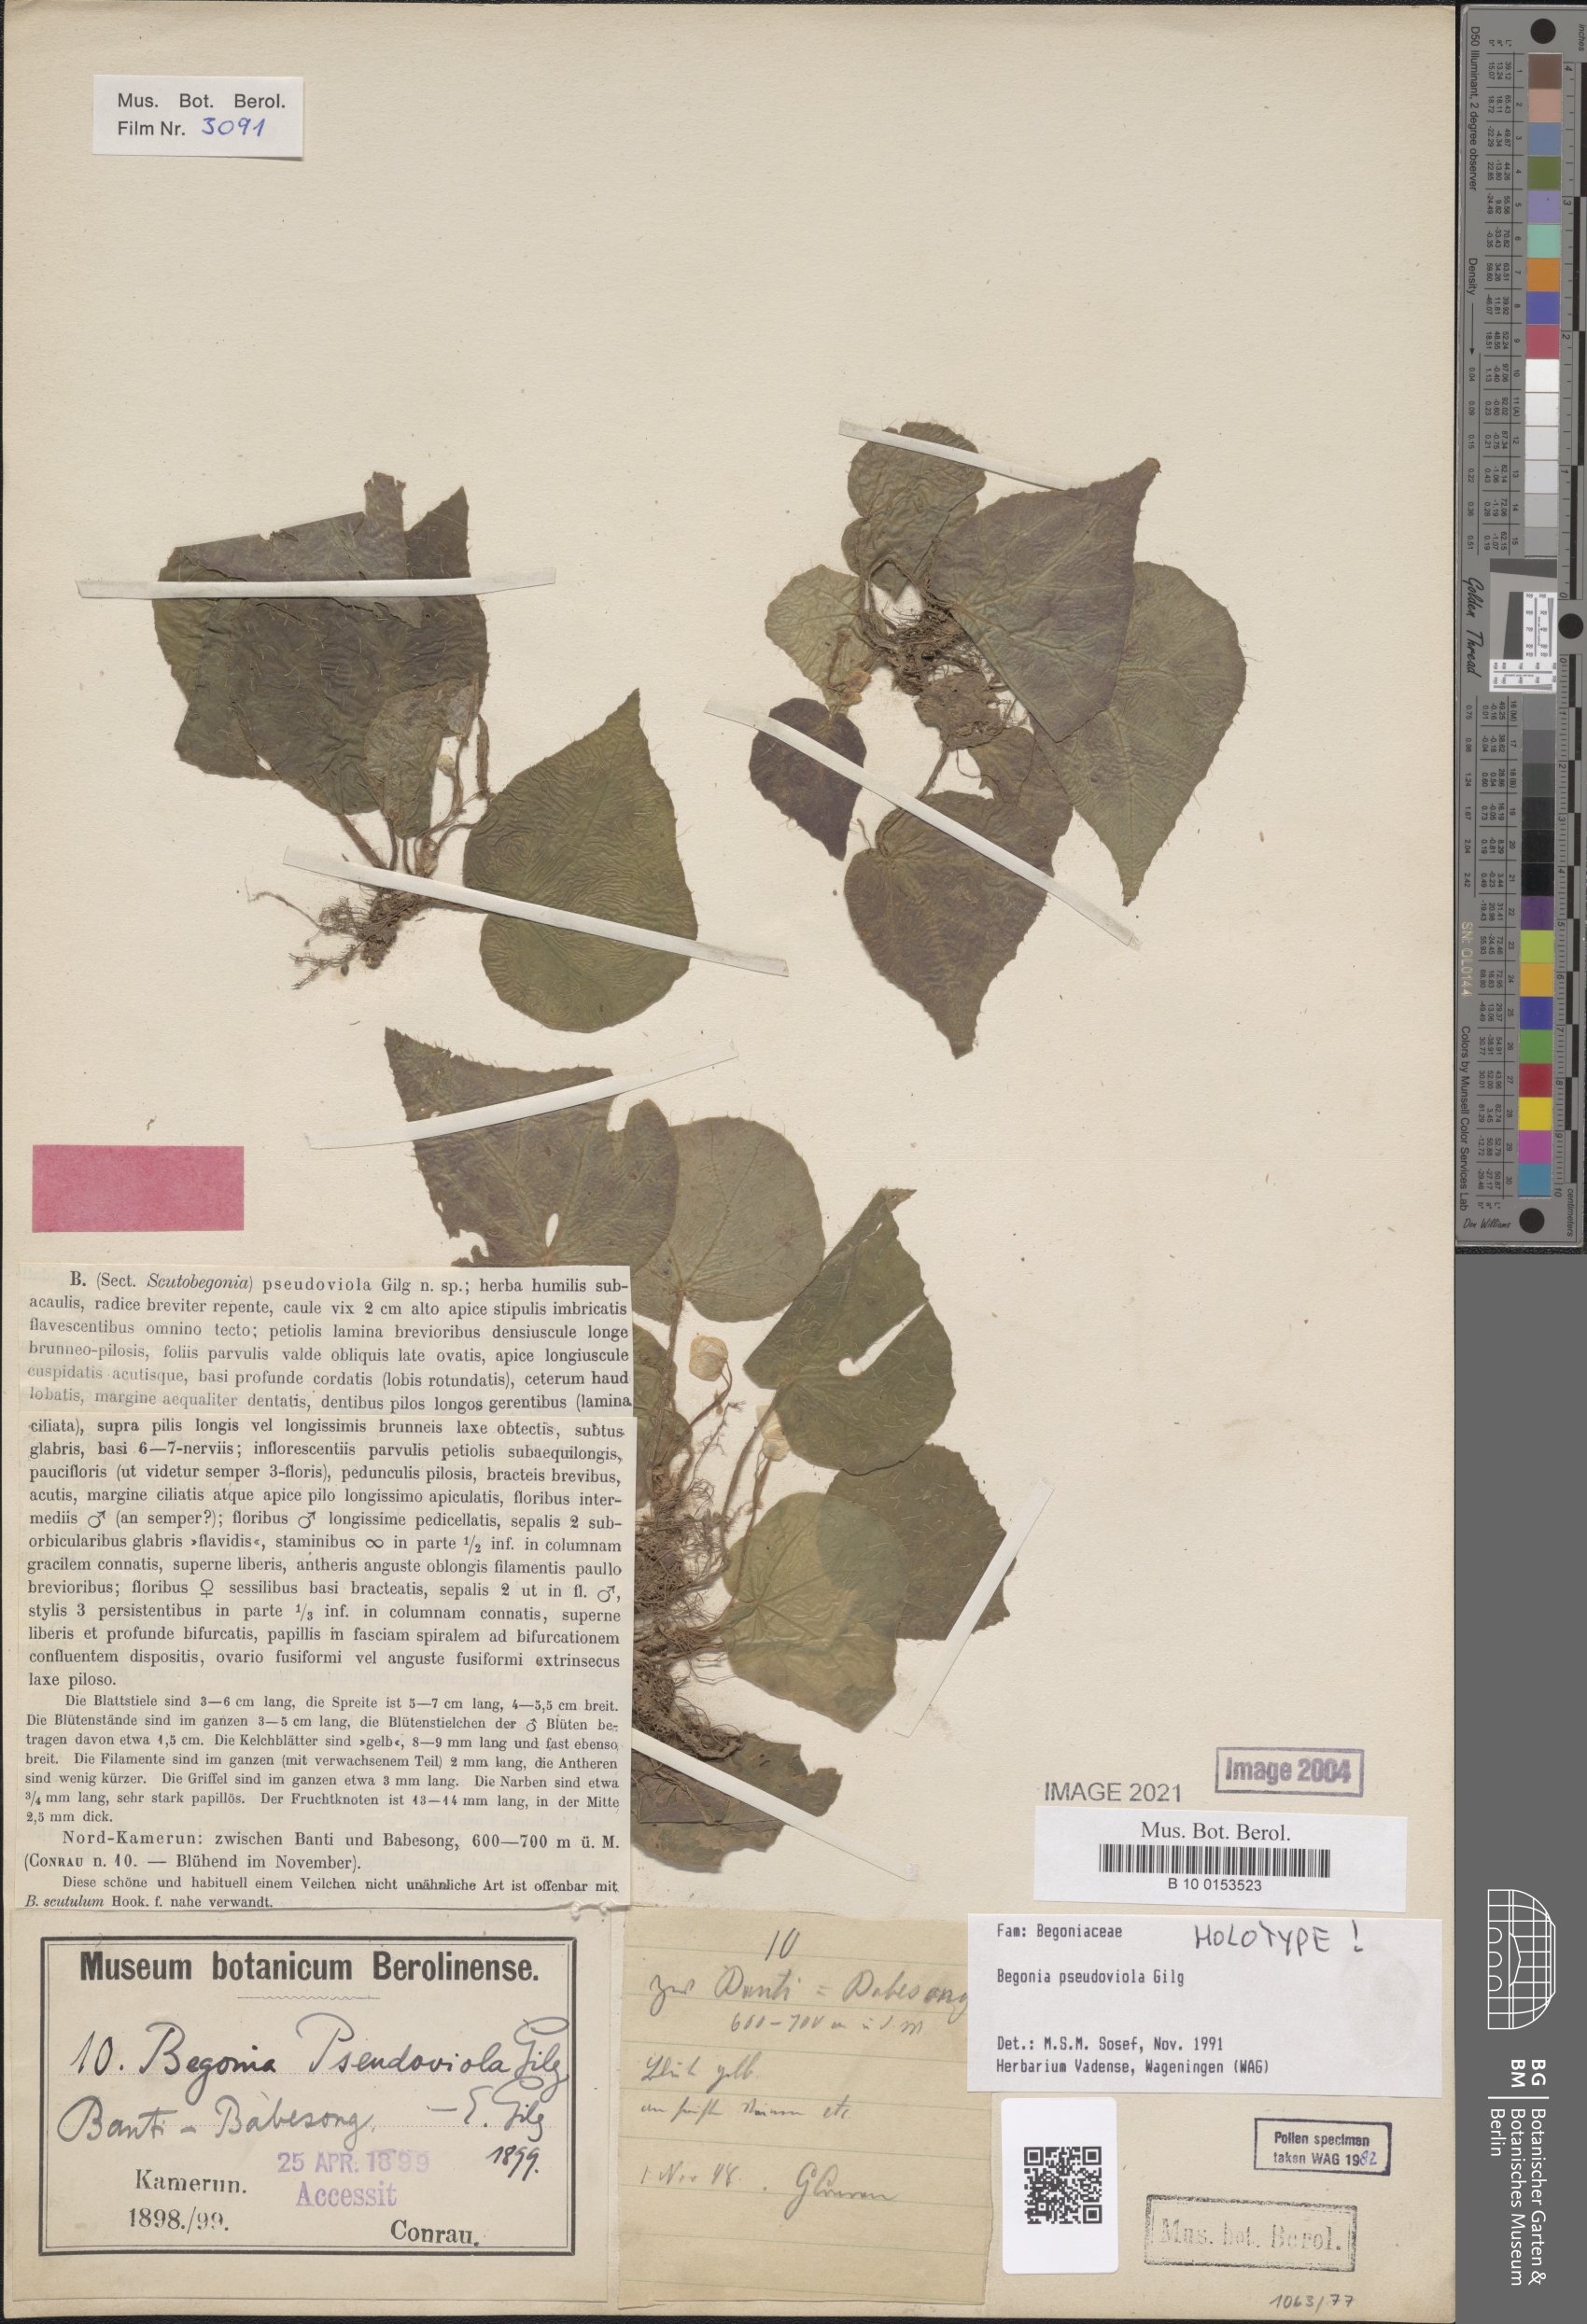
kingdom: Plantae
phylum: Tracheophyta
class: Magnoliopsida
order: Cucurbitales
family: Begoniaceae
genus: Begonia
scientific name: Begonia pseudoviola
